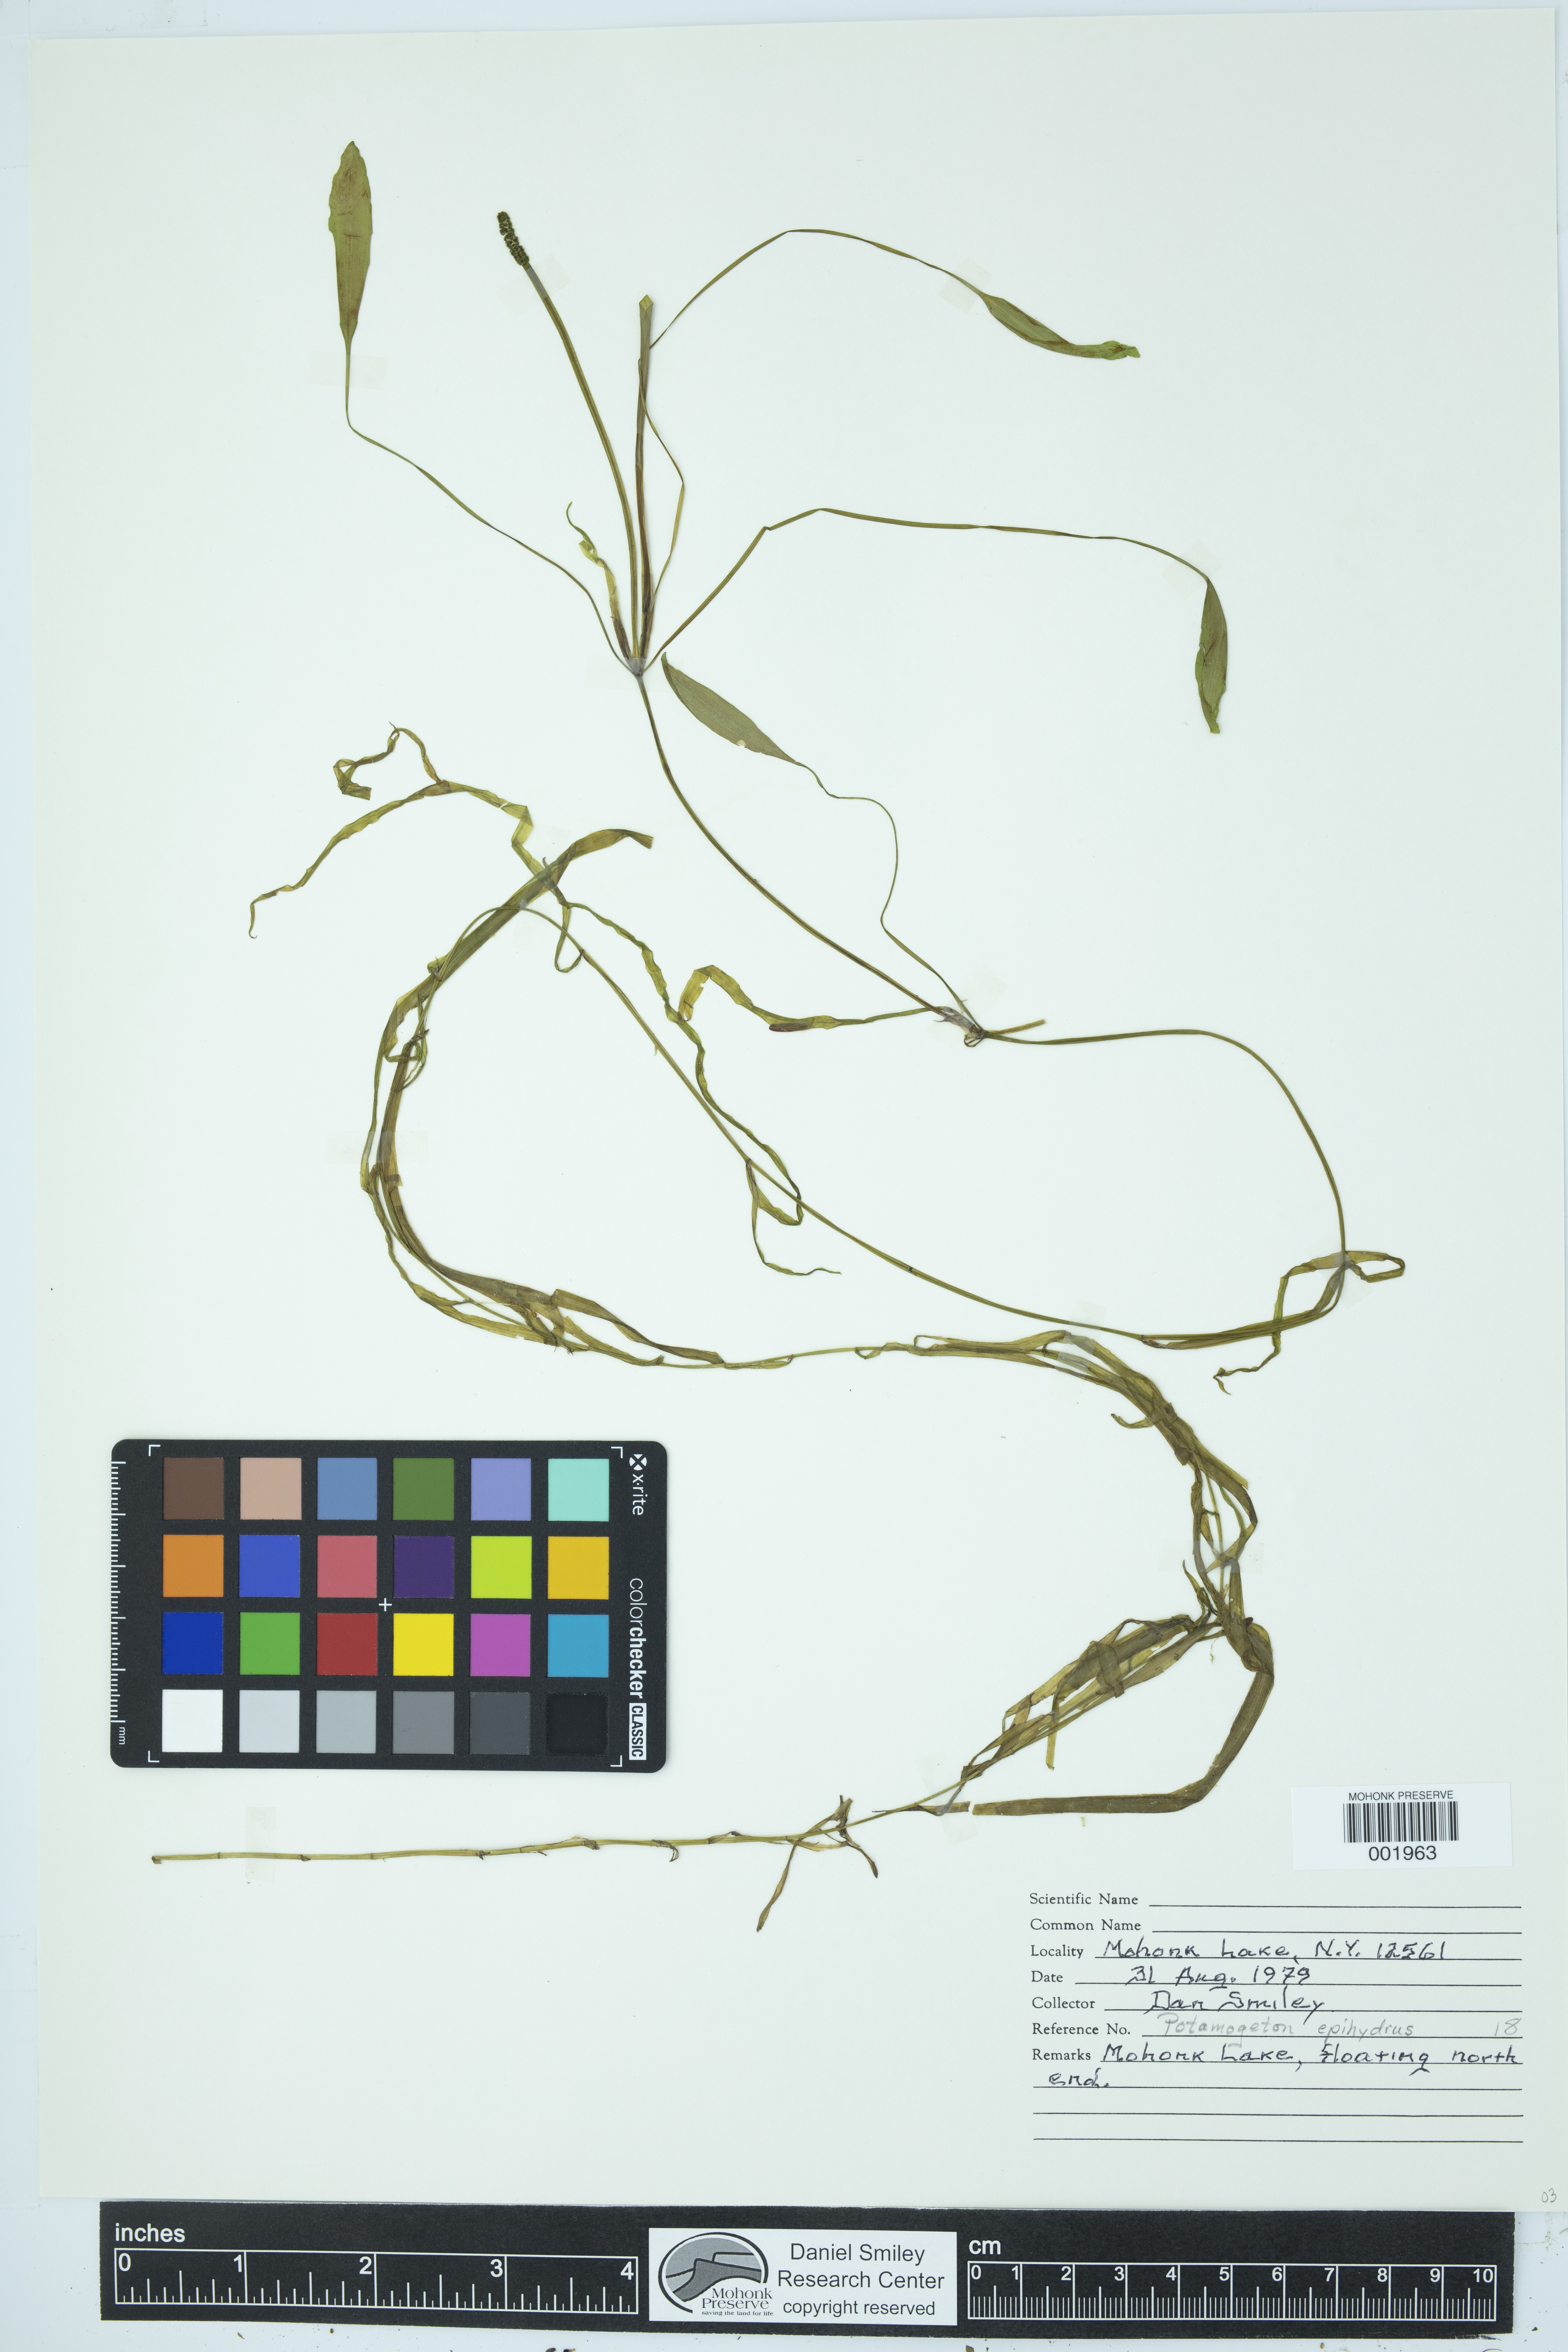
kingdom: Plantae
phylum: Tracheophyta
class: Liliopsida
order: Alismatales
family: Potamogetonaceae
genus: Potamogeton
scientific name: Potamogeton epihydrus
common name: American pondweed
